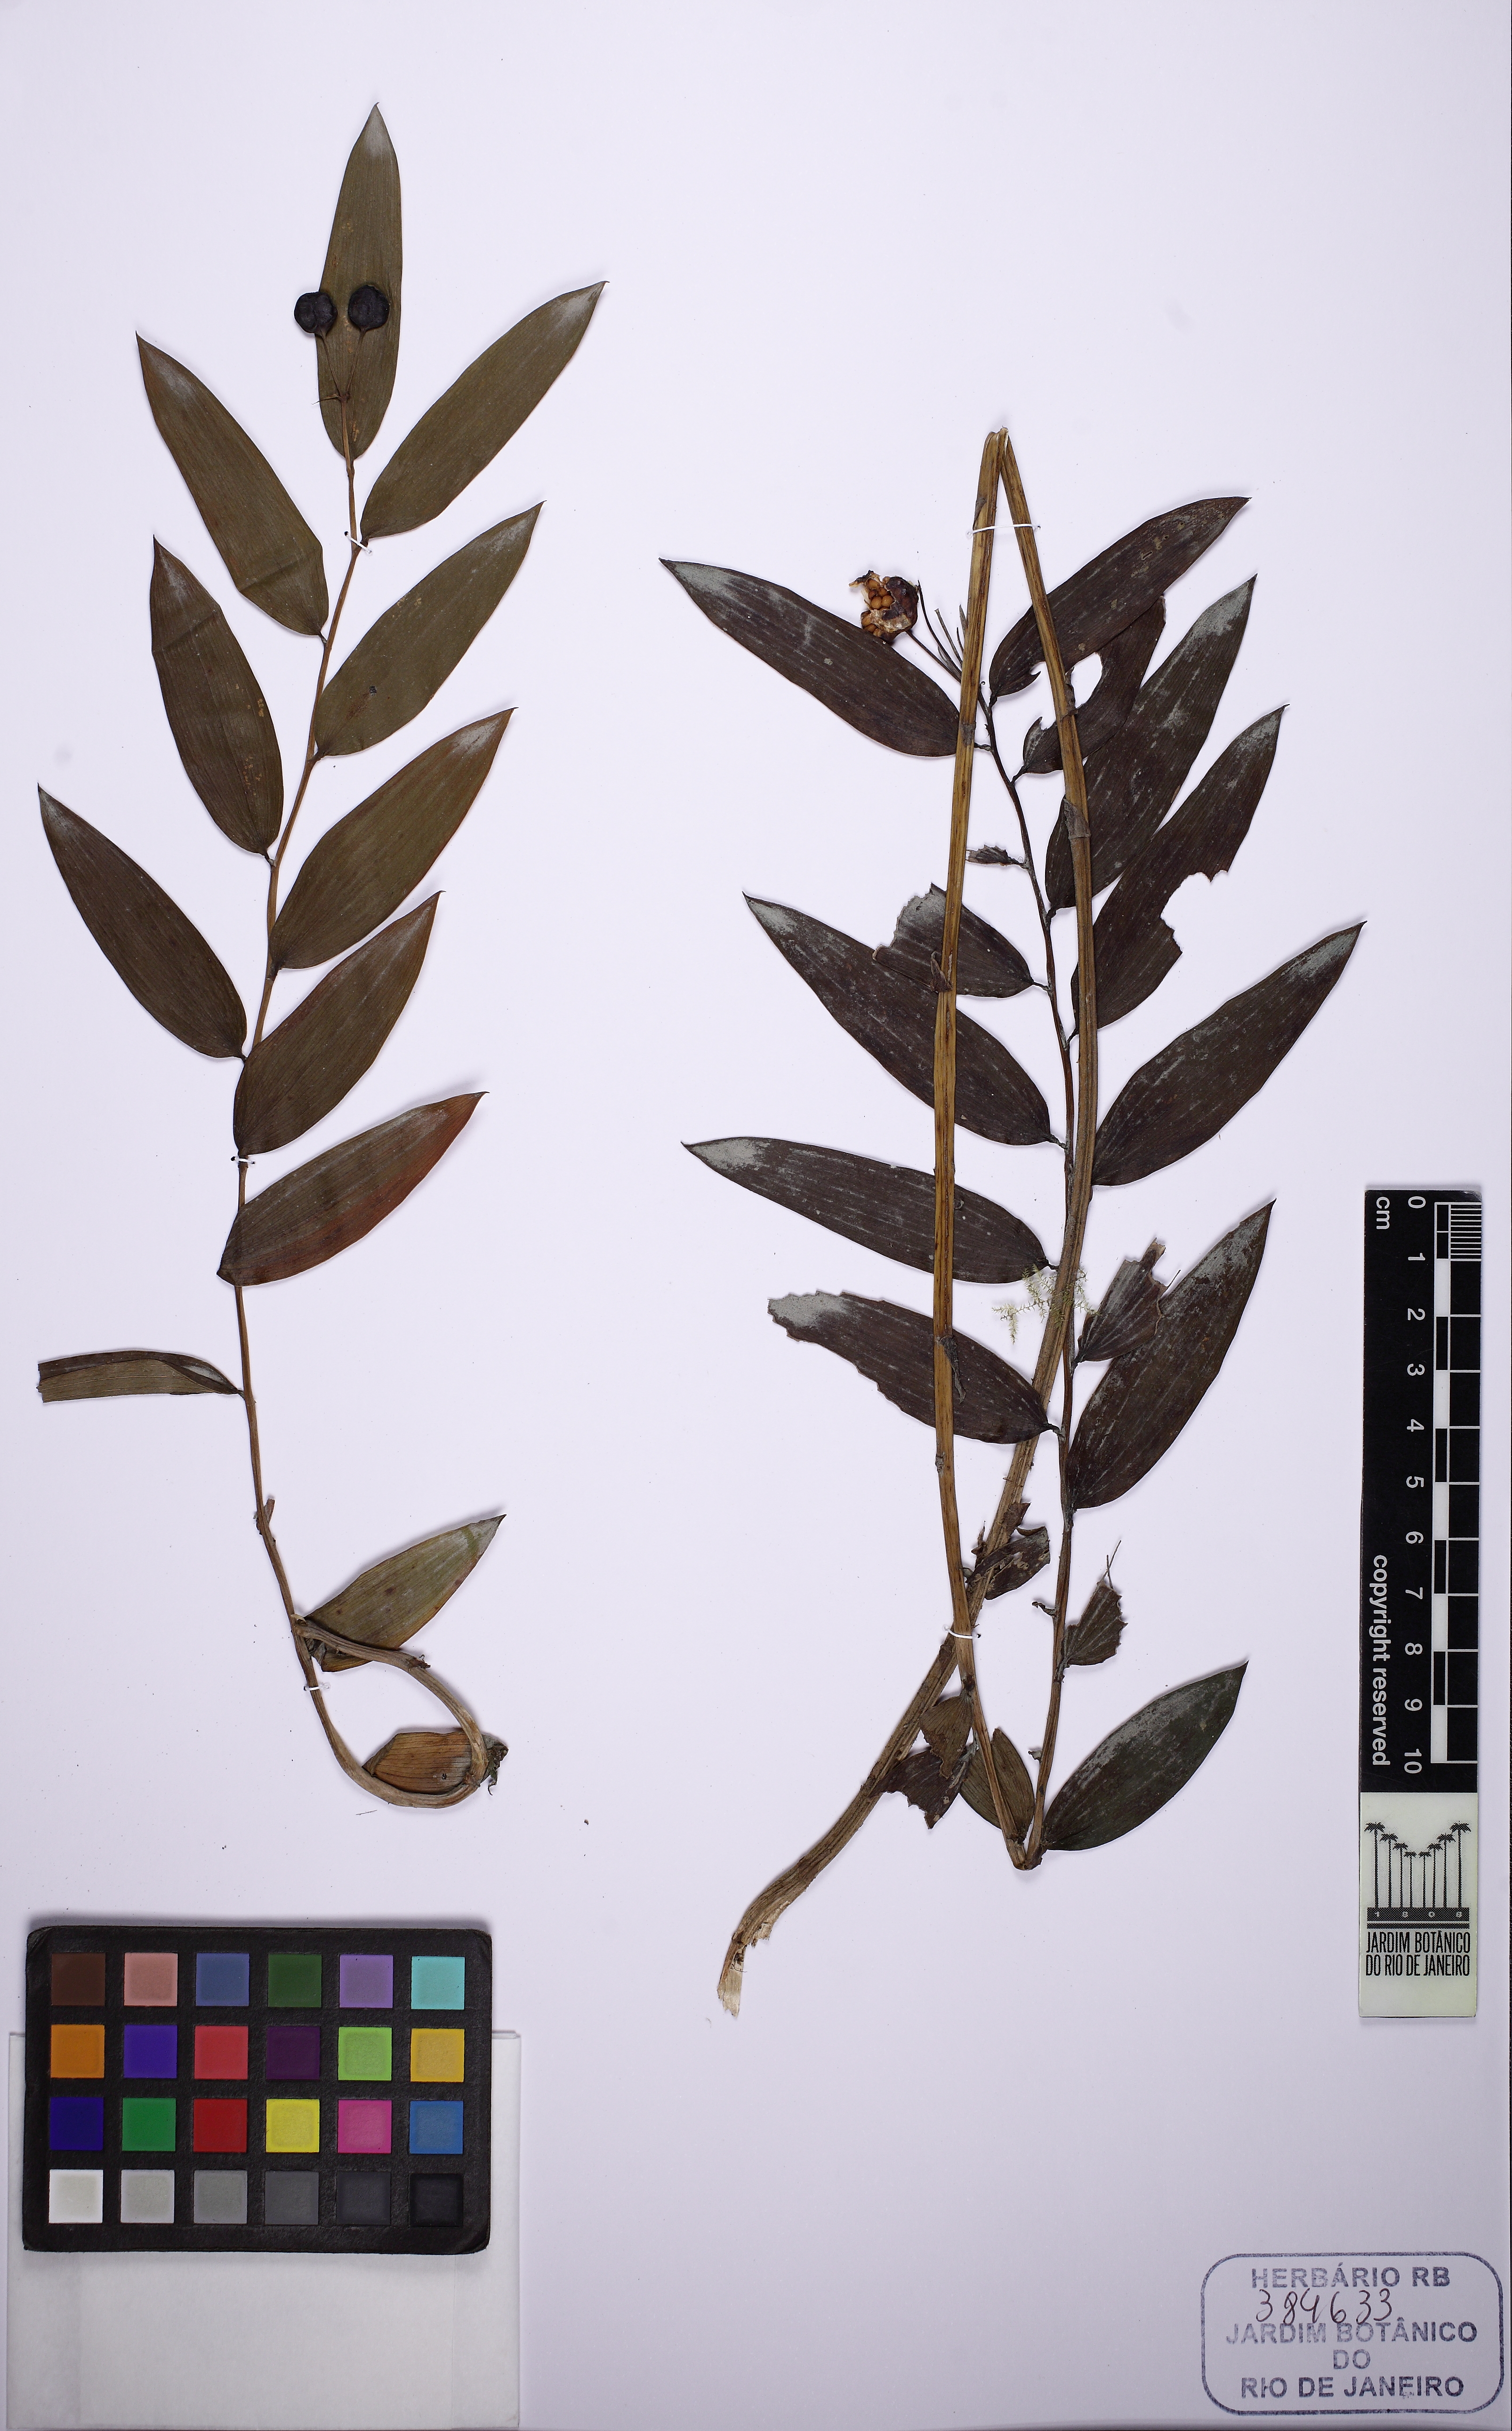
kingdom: Plantae
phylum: Tracheophyta
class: Liliopsida
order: Liliales
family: Alstroemeriaceae
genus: Bomarea
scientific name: Bomarea distichophylla
